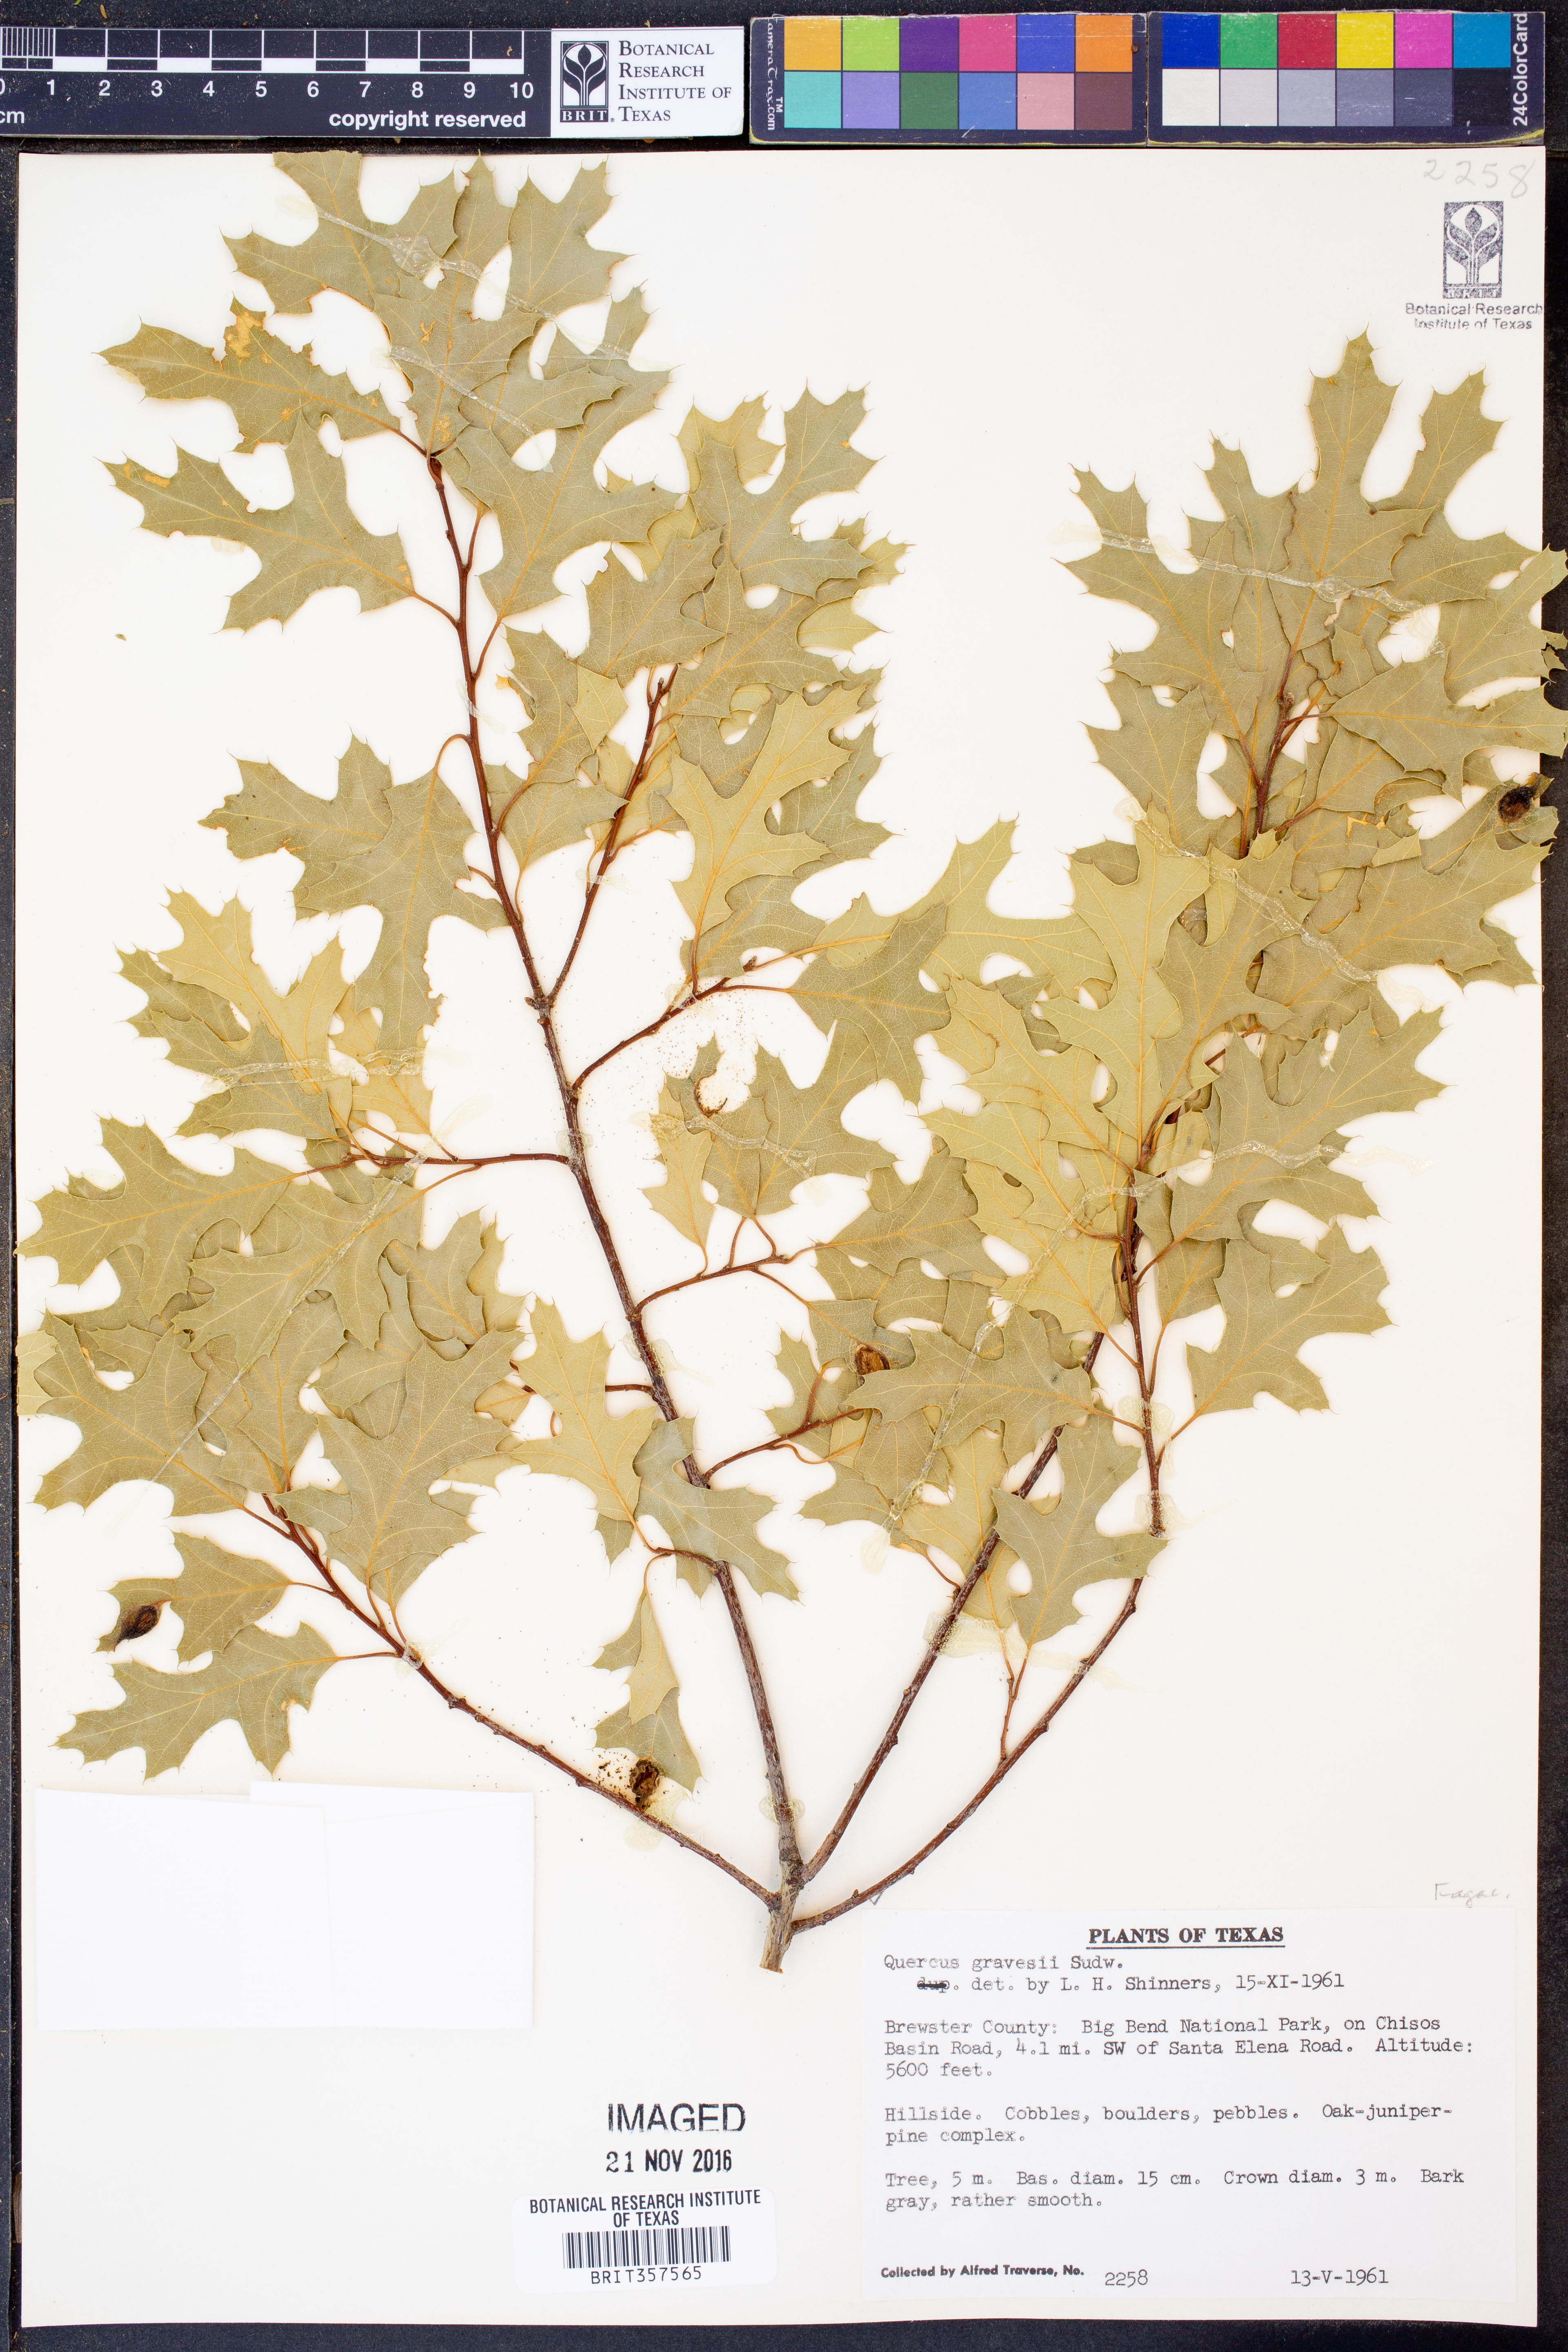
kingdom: Plantae
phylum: Tracheophyta
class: Magnoliopsida
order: Fagales
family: Fagaceae
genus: Quercus
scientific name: Quercus gravesii
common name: Chisos red oak
